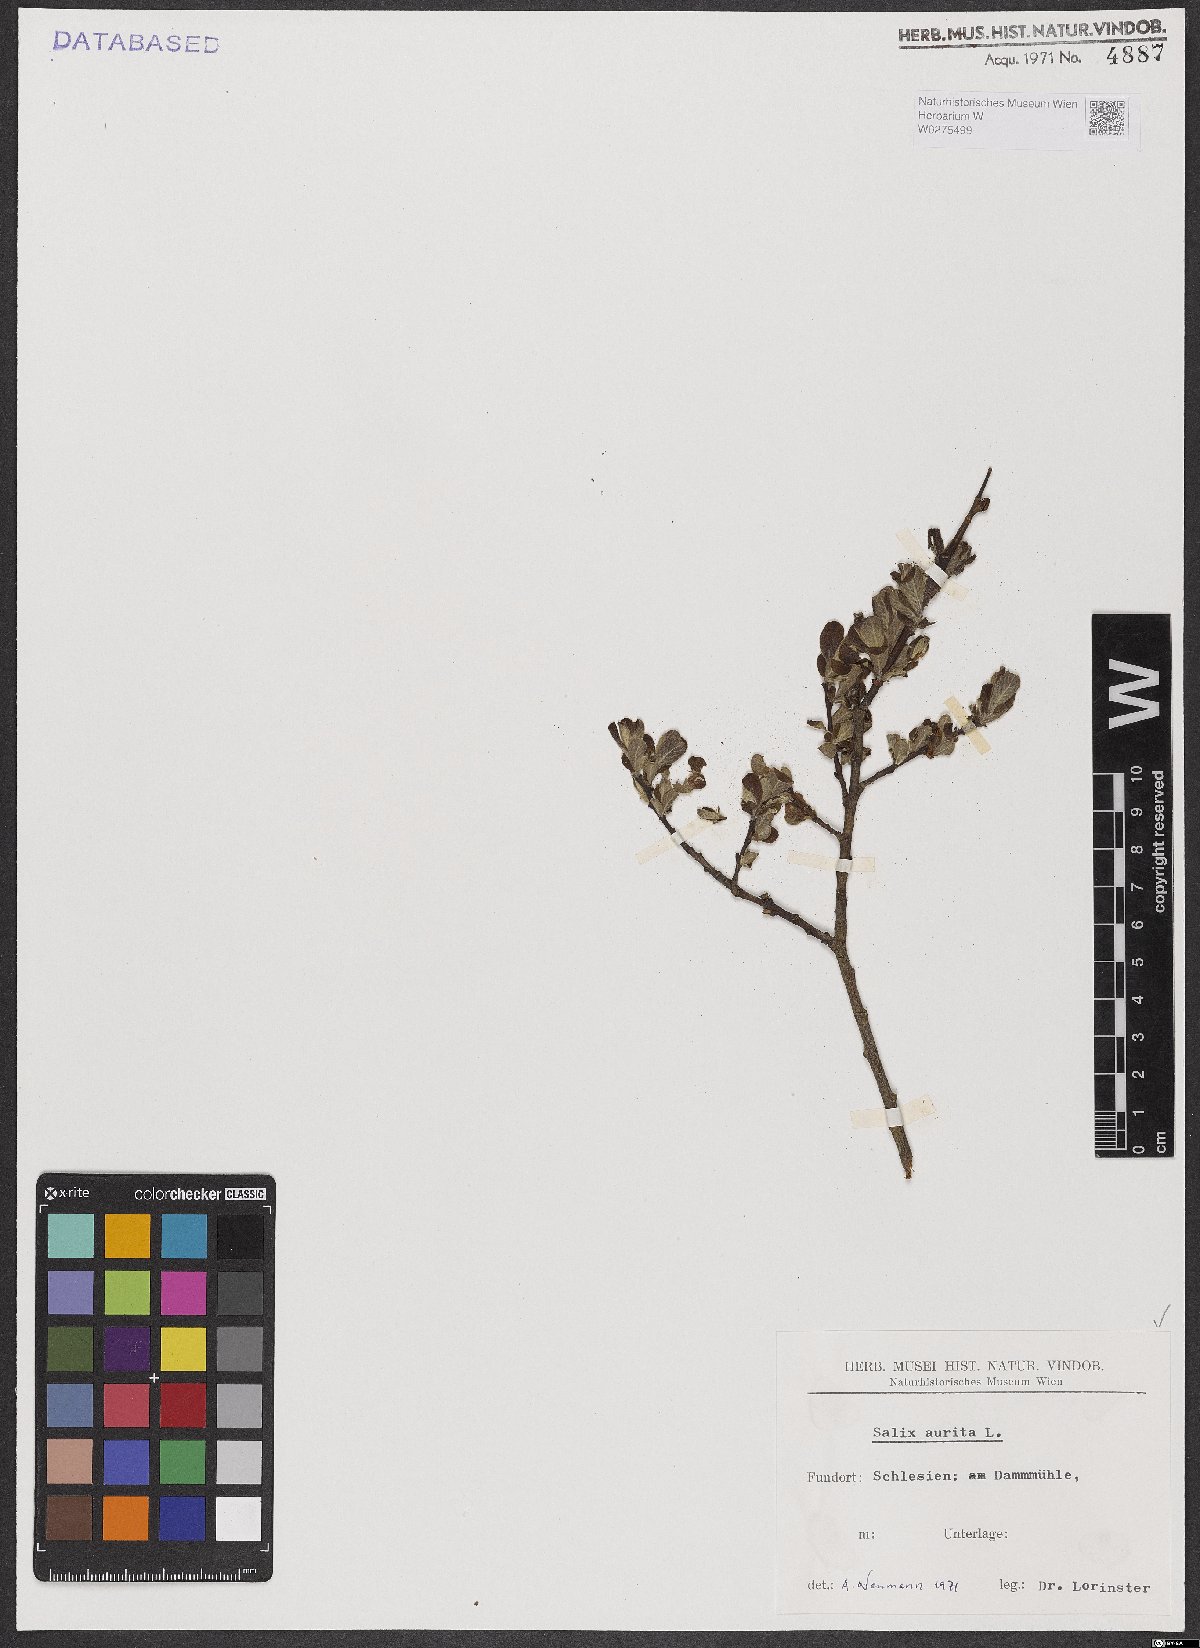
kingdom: Plantae
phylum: Tracheophyta
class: Magnoliopsida
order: Malpighiales
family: Salicaceae
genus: Salix
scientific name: Salix aurita
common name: Eared willow
